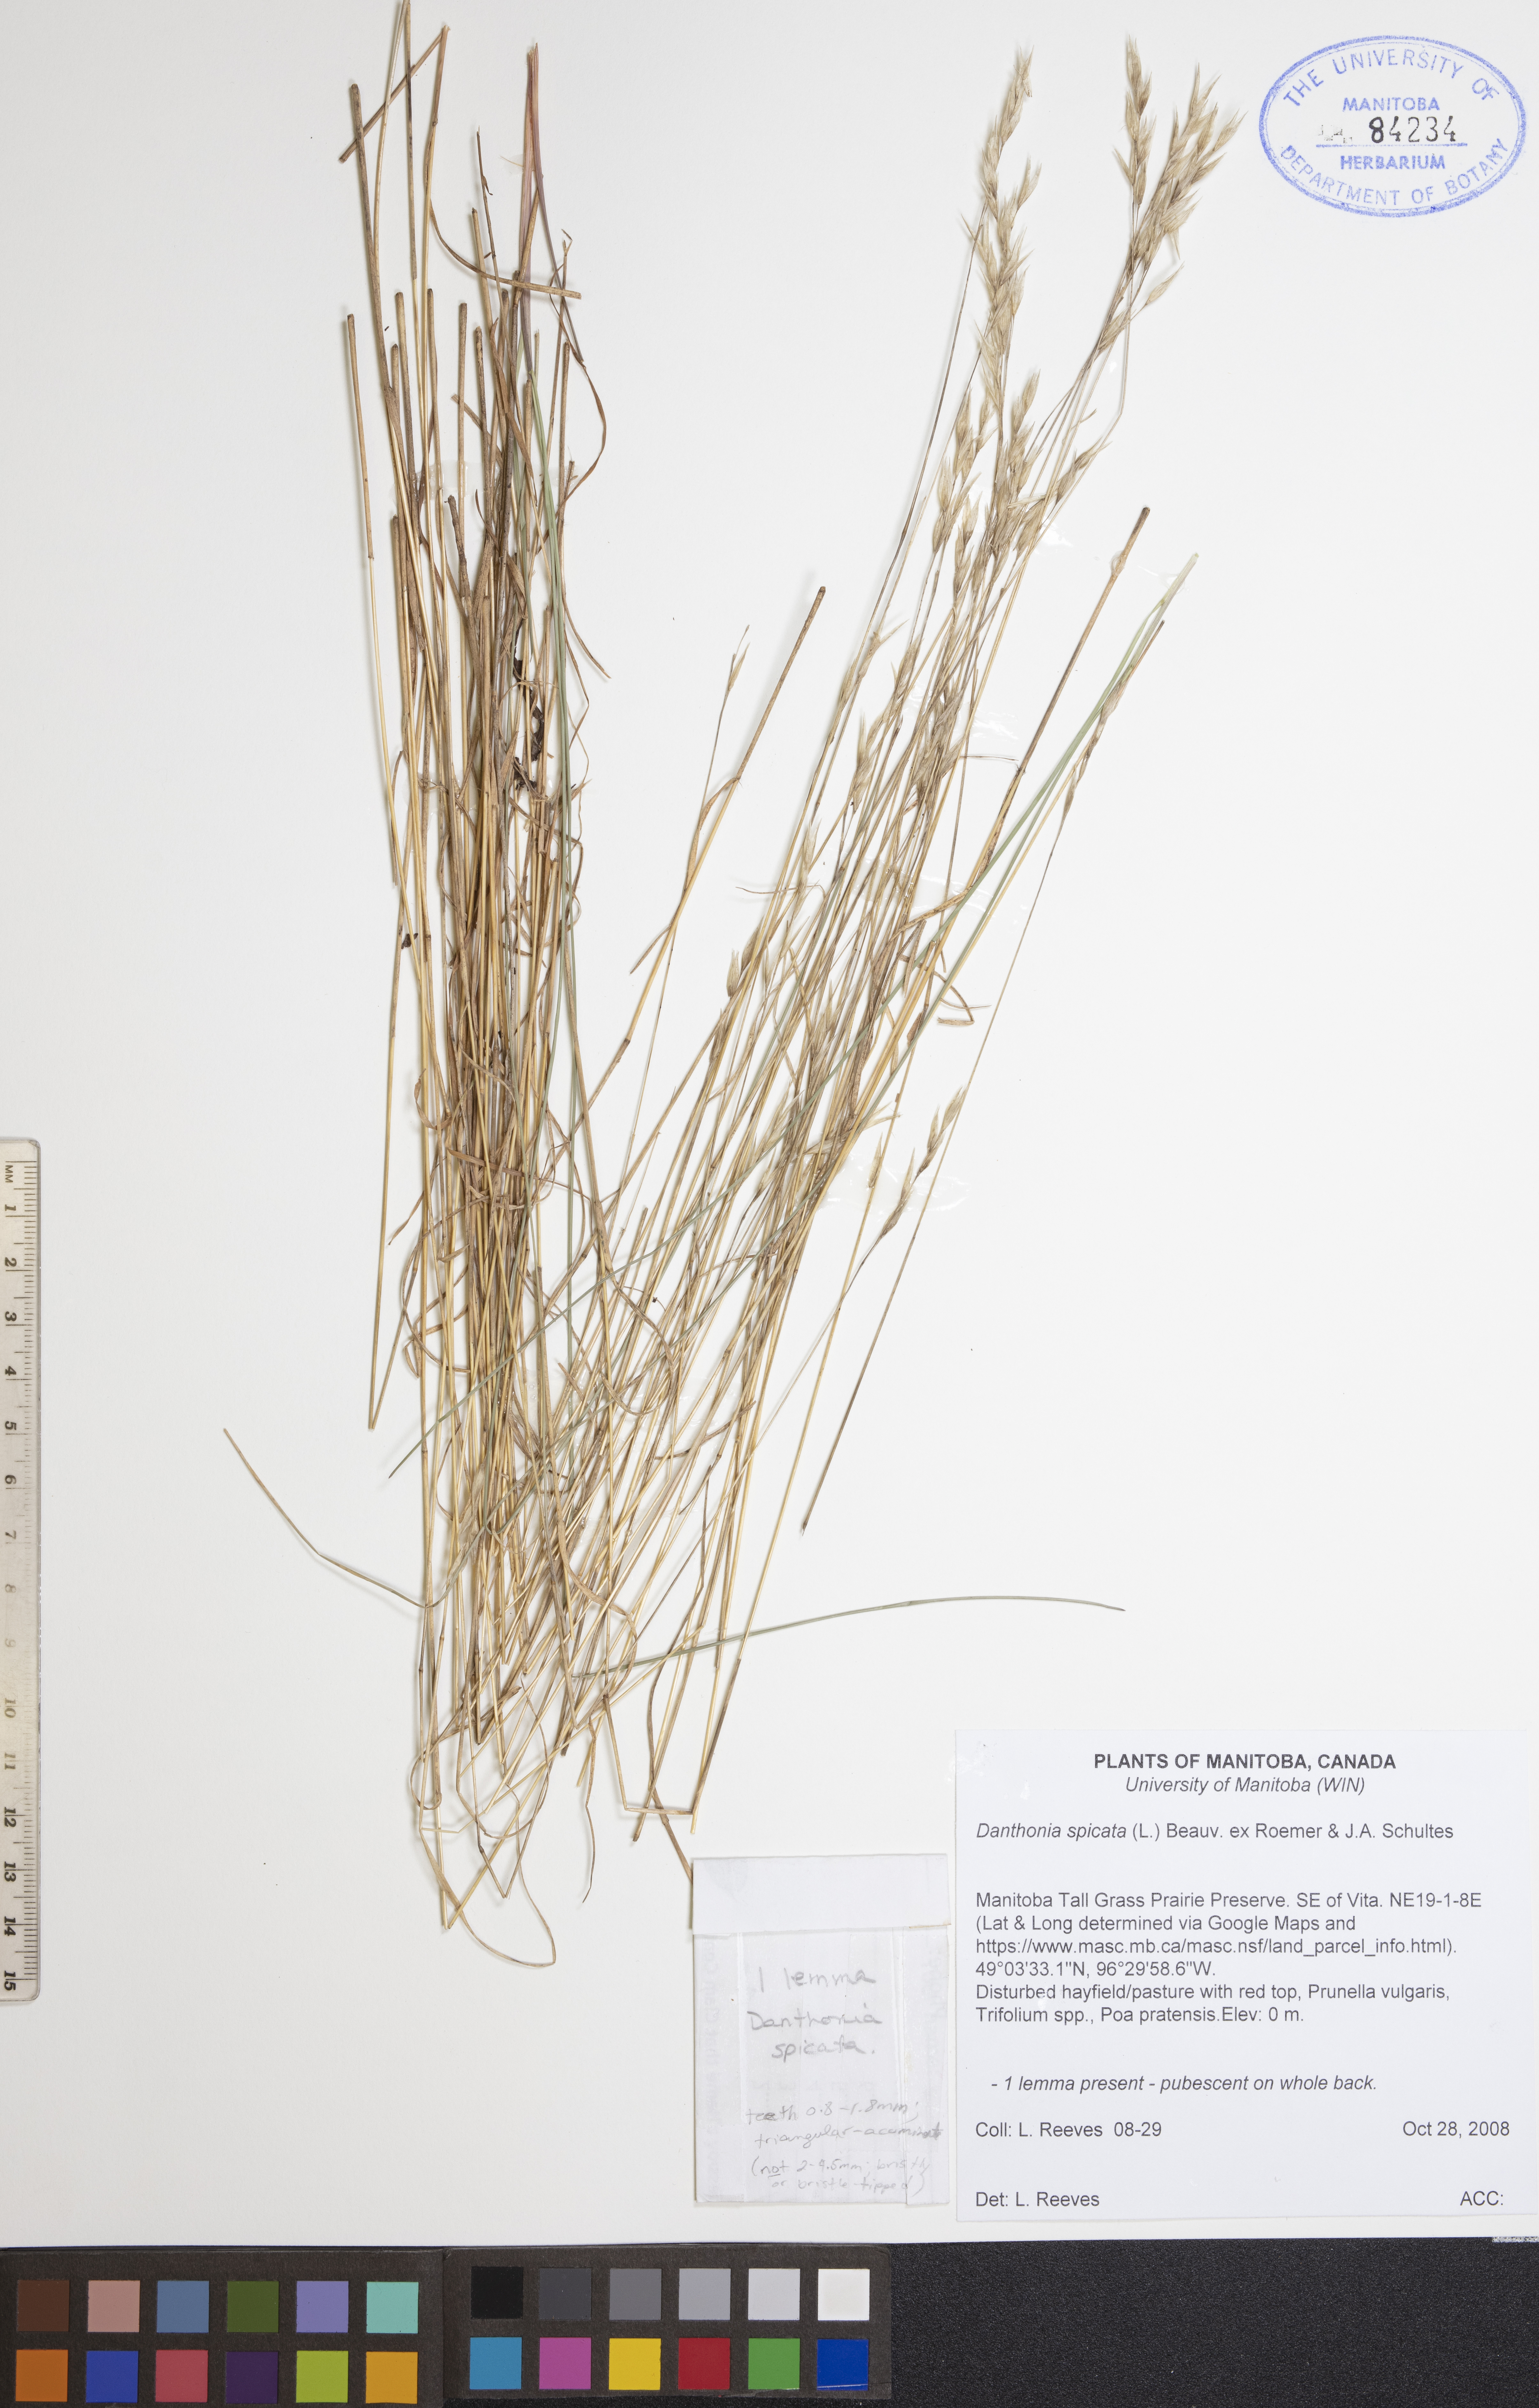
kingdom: Plantae
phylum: Tracheophyta
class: Liliopsida
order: Poales
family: Poaceae
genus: Danthonia
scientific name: Danthonia spicata
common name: Common wild oatgrass
